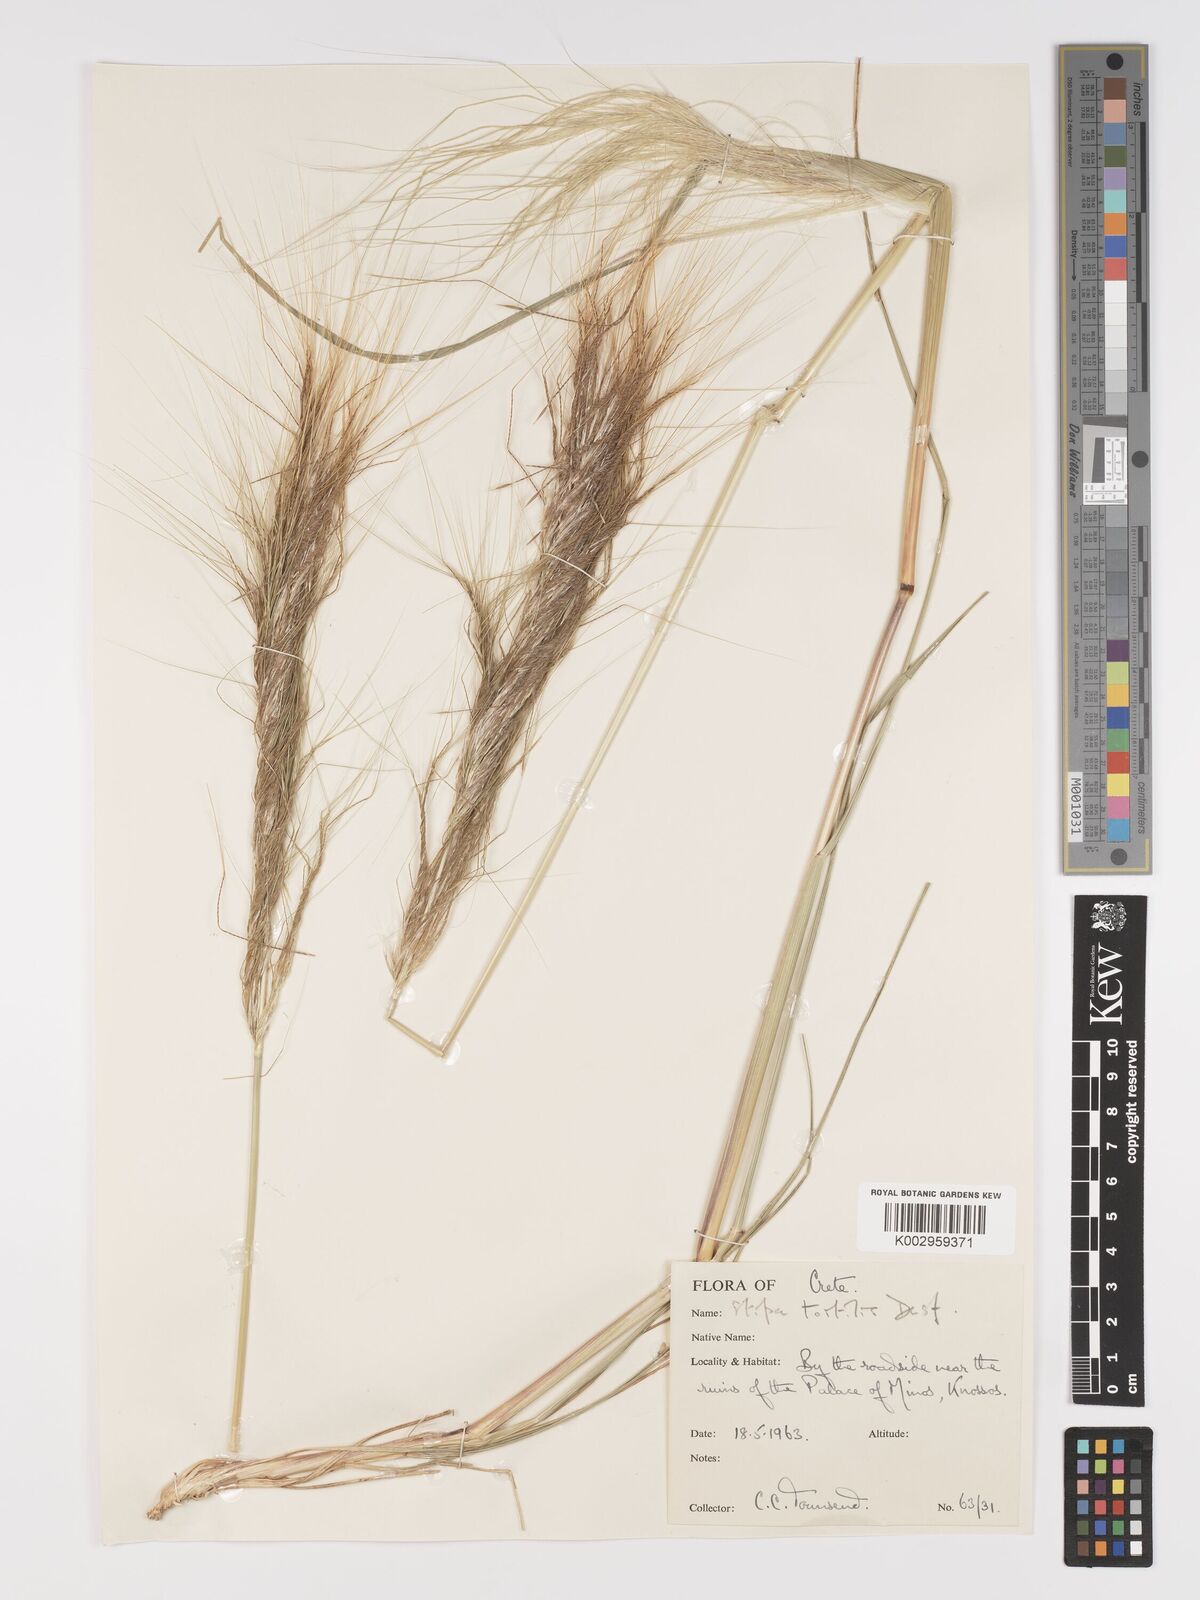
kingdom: Plantae
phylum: Tracheophyta
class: Liliopsida
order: Poales
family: Poaceae
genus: Stipellula
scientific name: Stipellula capensis
